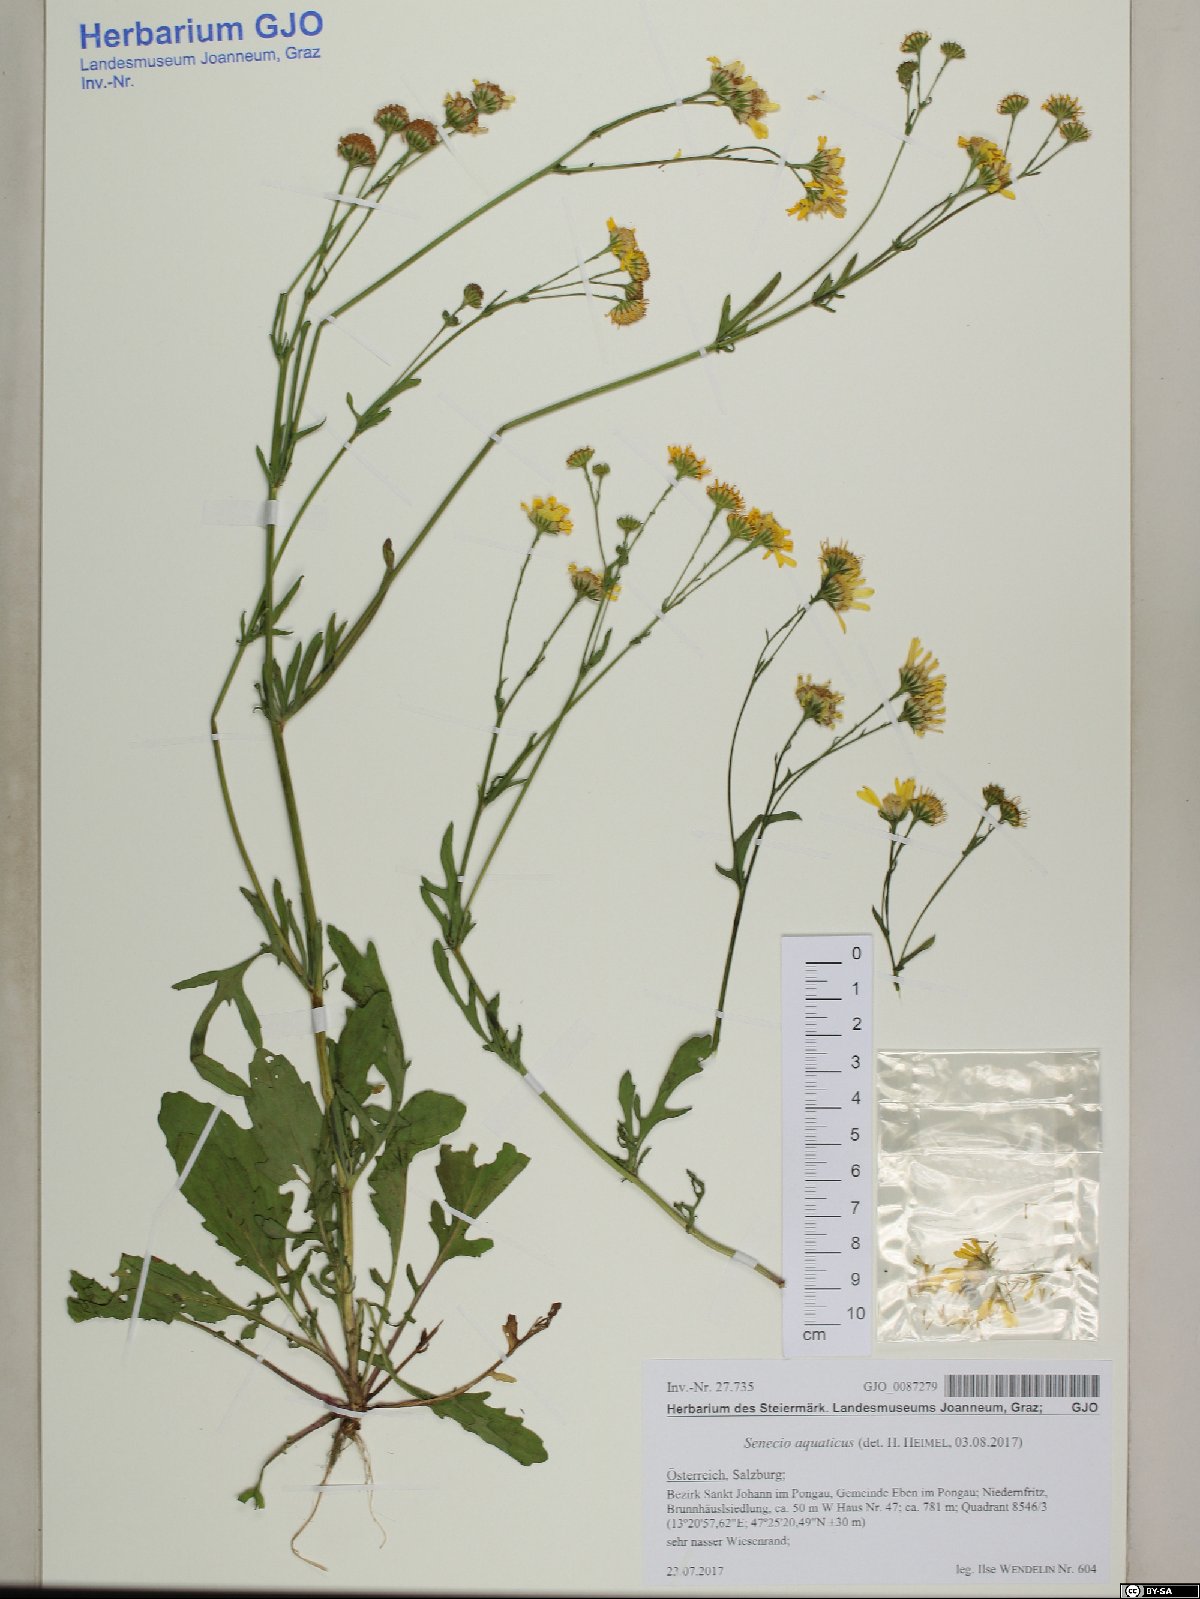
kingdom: Plantae
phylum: Tracheophyta
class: Magnoliopsida
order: Asterales
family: Asteraceae
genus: Jacobaea
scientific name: Jacobaea aquatica
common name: Water ragwort
